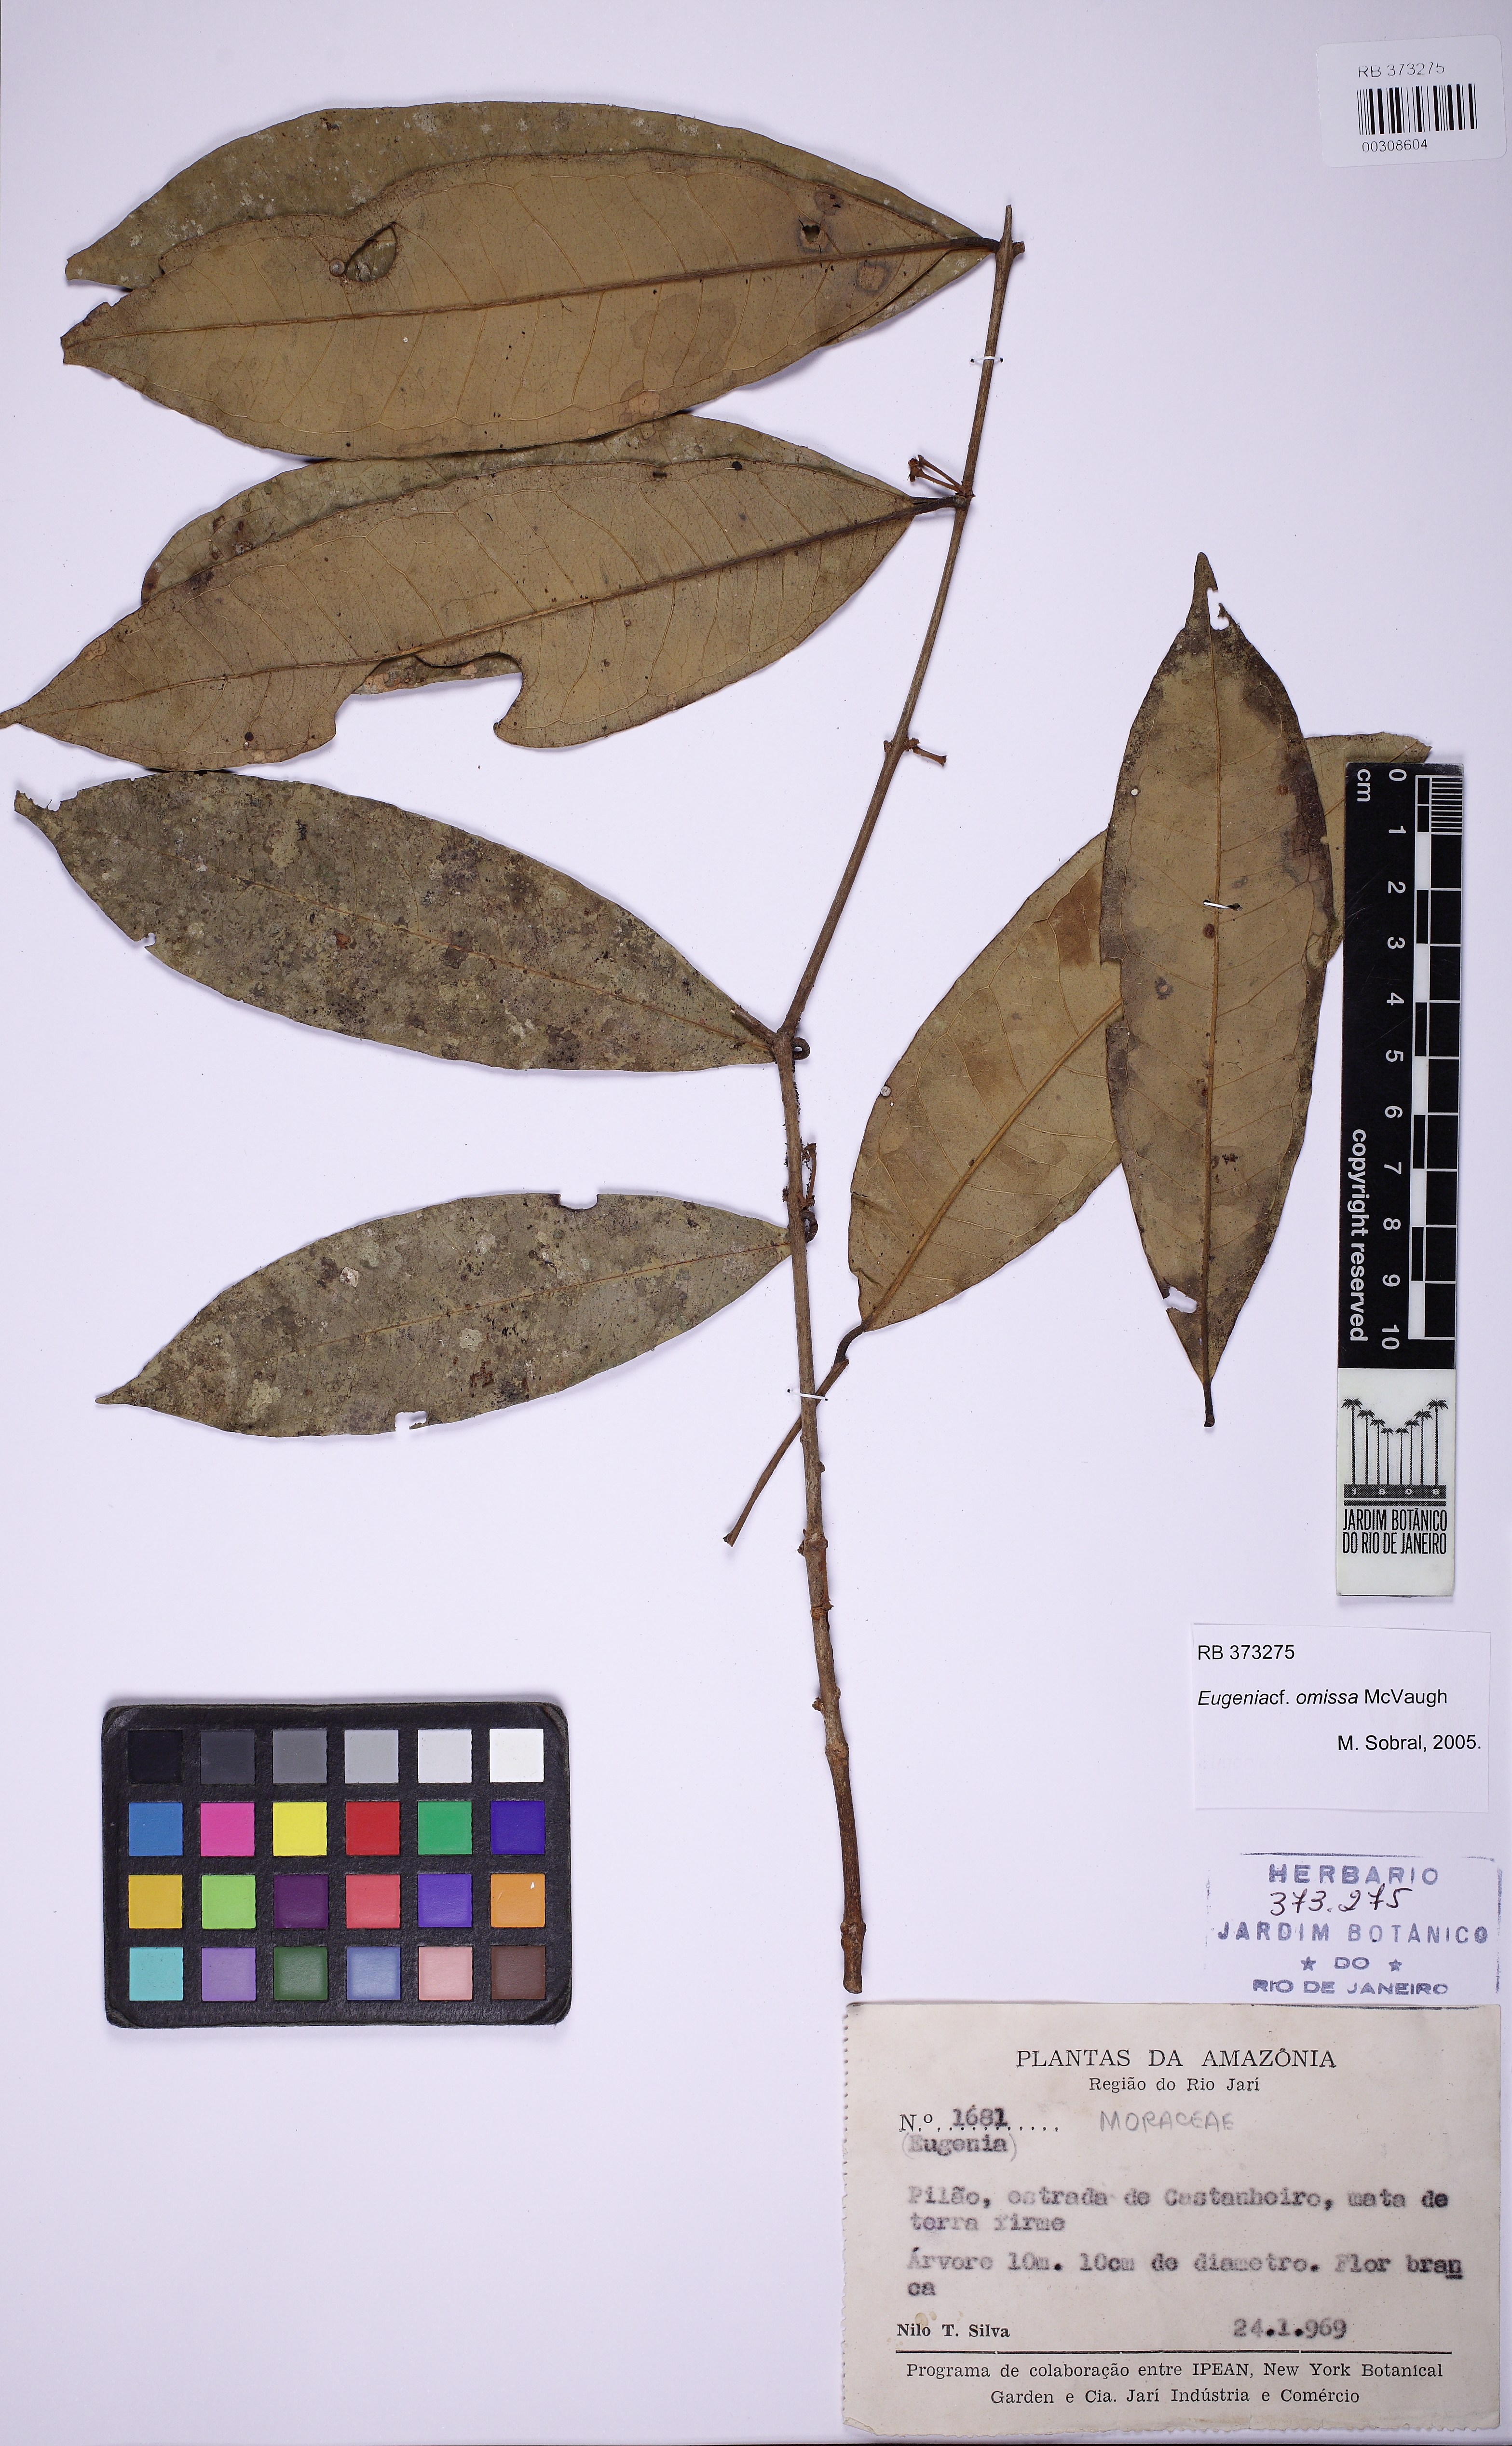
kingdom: Plantae
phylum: Tracheophyta
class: Magnoliopsida
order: Myrtales
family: Myrtaceae
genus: Eugenia
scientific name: Eugenia omissa
